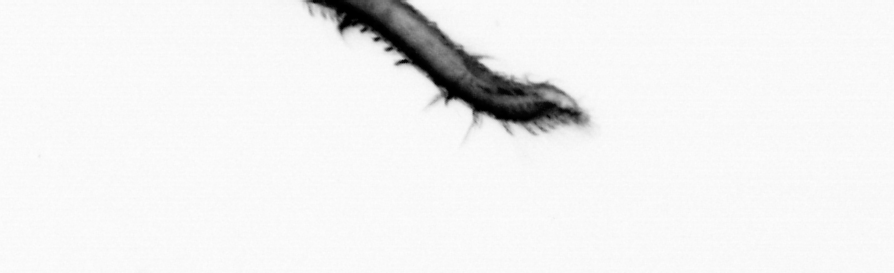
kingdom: Animalia
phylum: Annelida
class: Polychaeta
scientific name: Polychaeta
